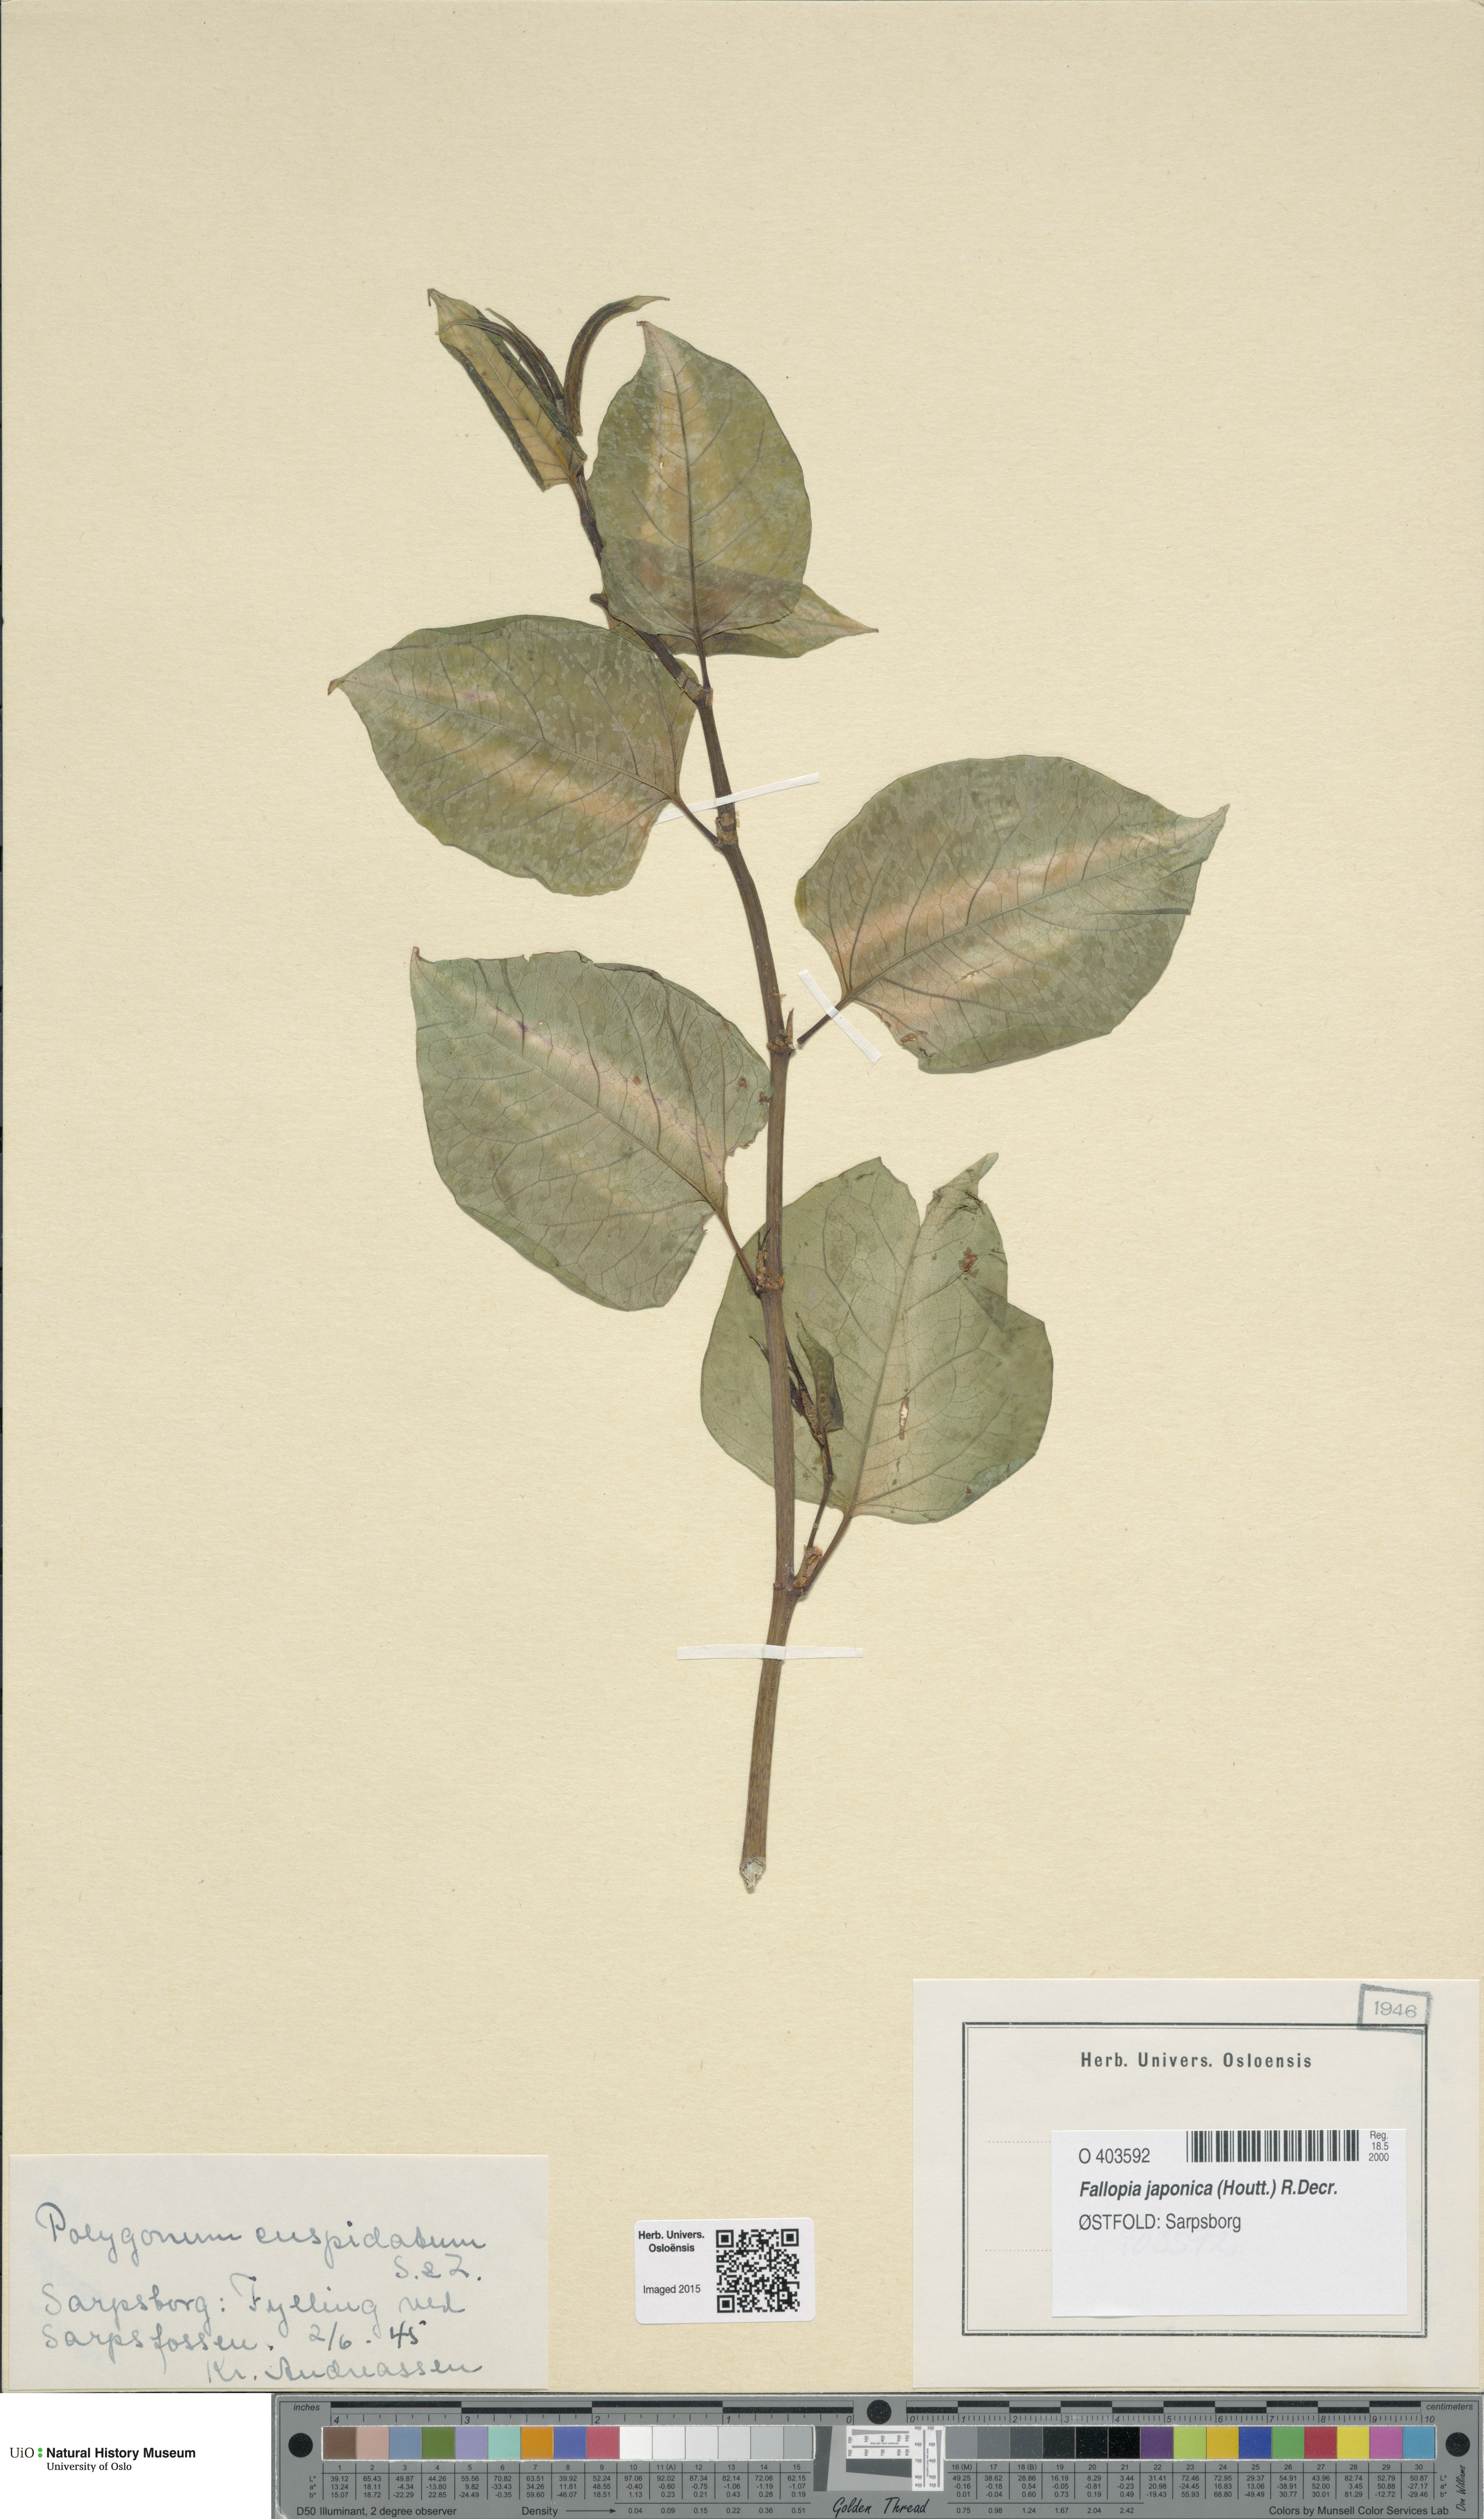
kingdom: Plantae
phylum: Tracheophyta
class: Magnoliopsida
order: Caryophyllales
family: Polygonaceae
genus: Reynoutria
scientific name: Reynoutria japonica
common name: Japanese knotweed
